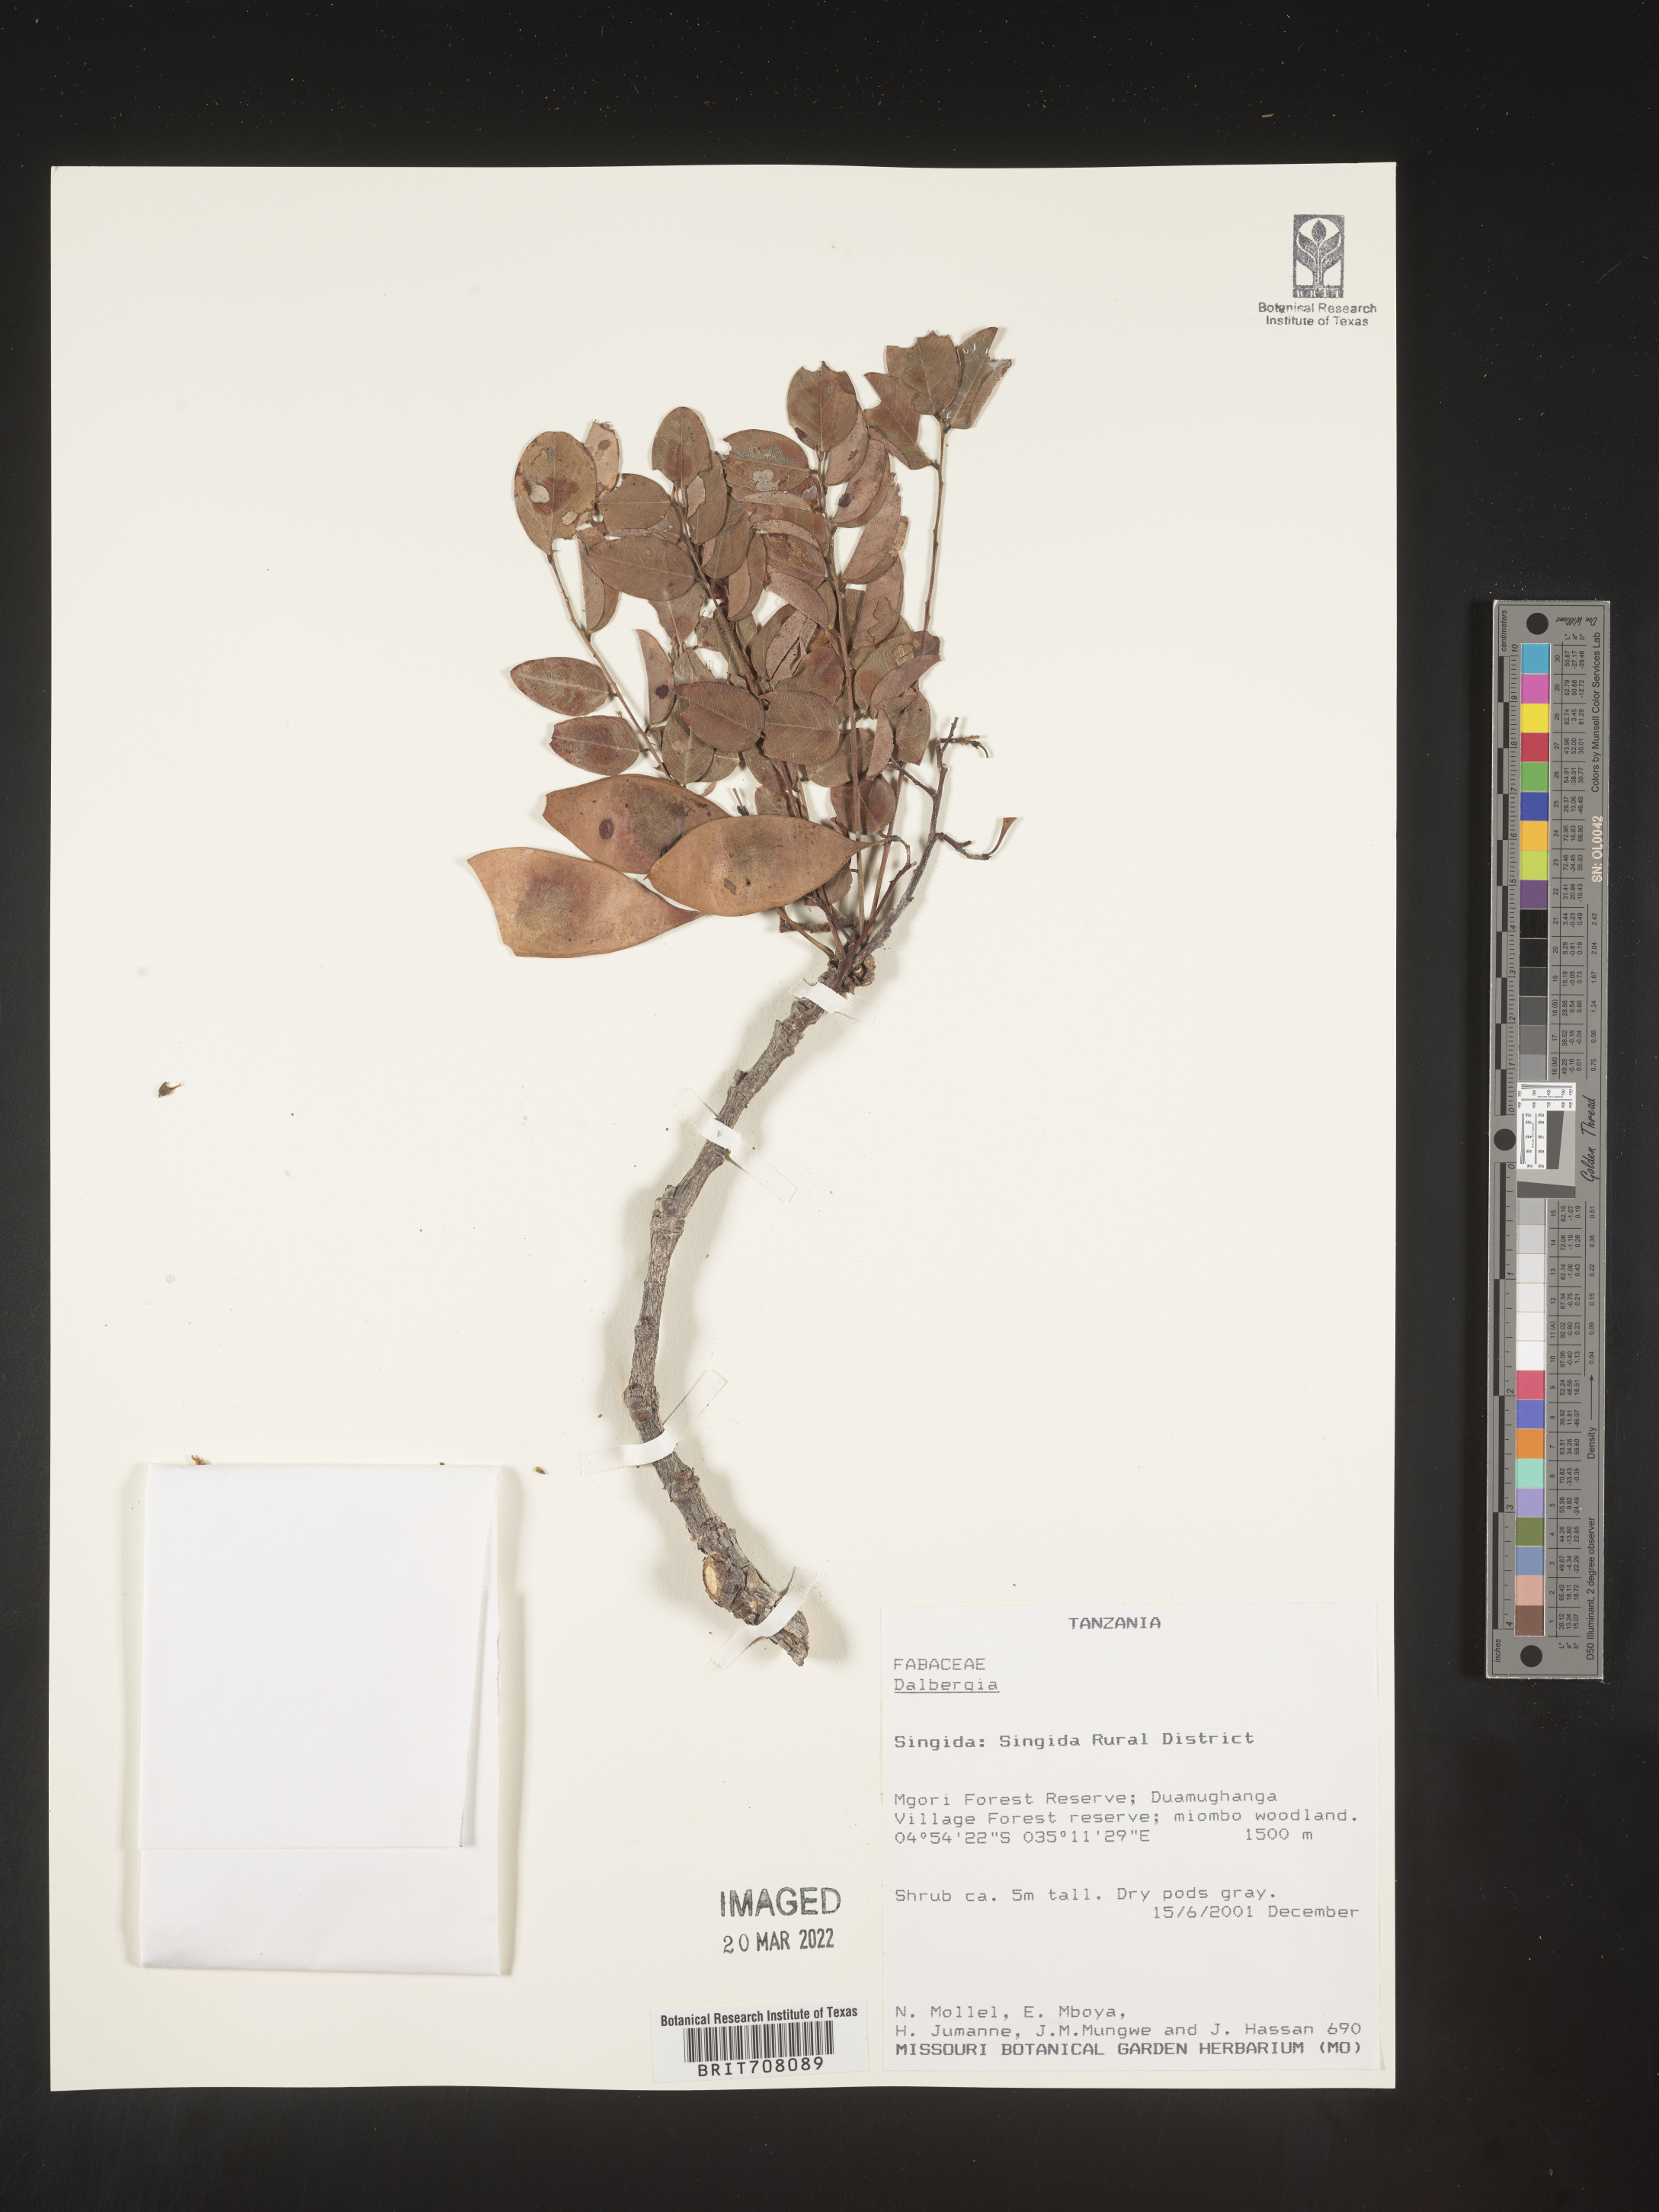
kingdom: Plantae
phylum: Tracheophyta
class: Magnoliopsida
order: Fabales
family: Fabaceae
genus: Dalbergia
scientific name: Dalbergia
